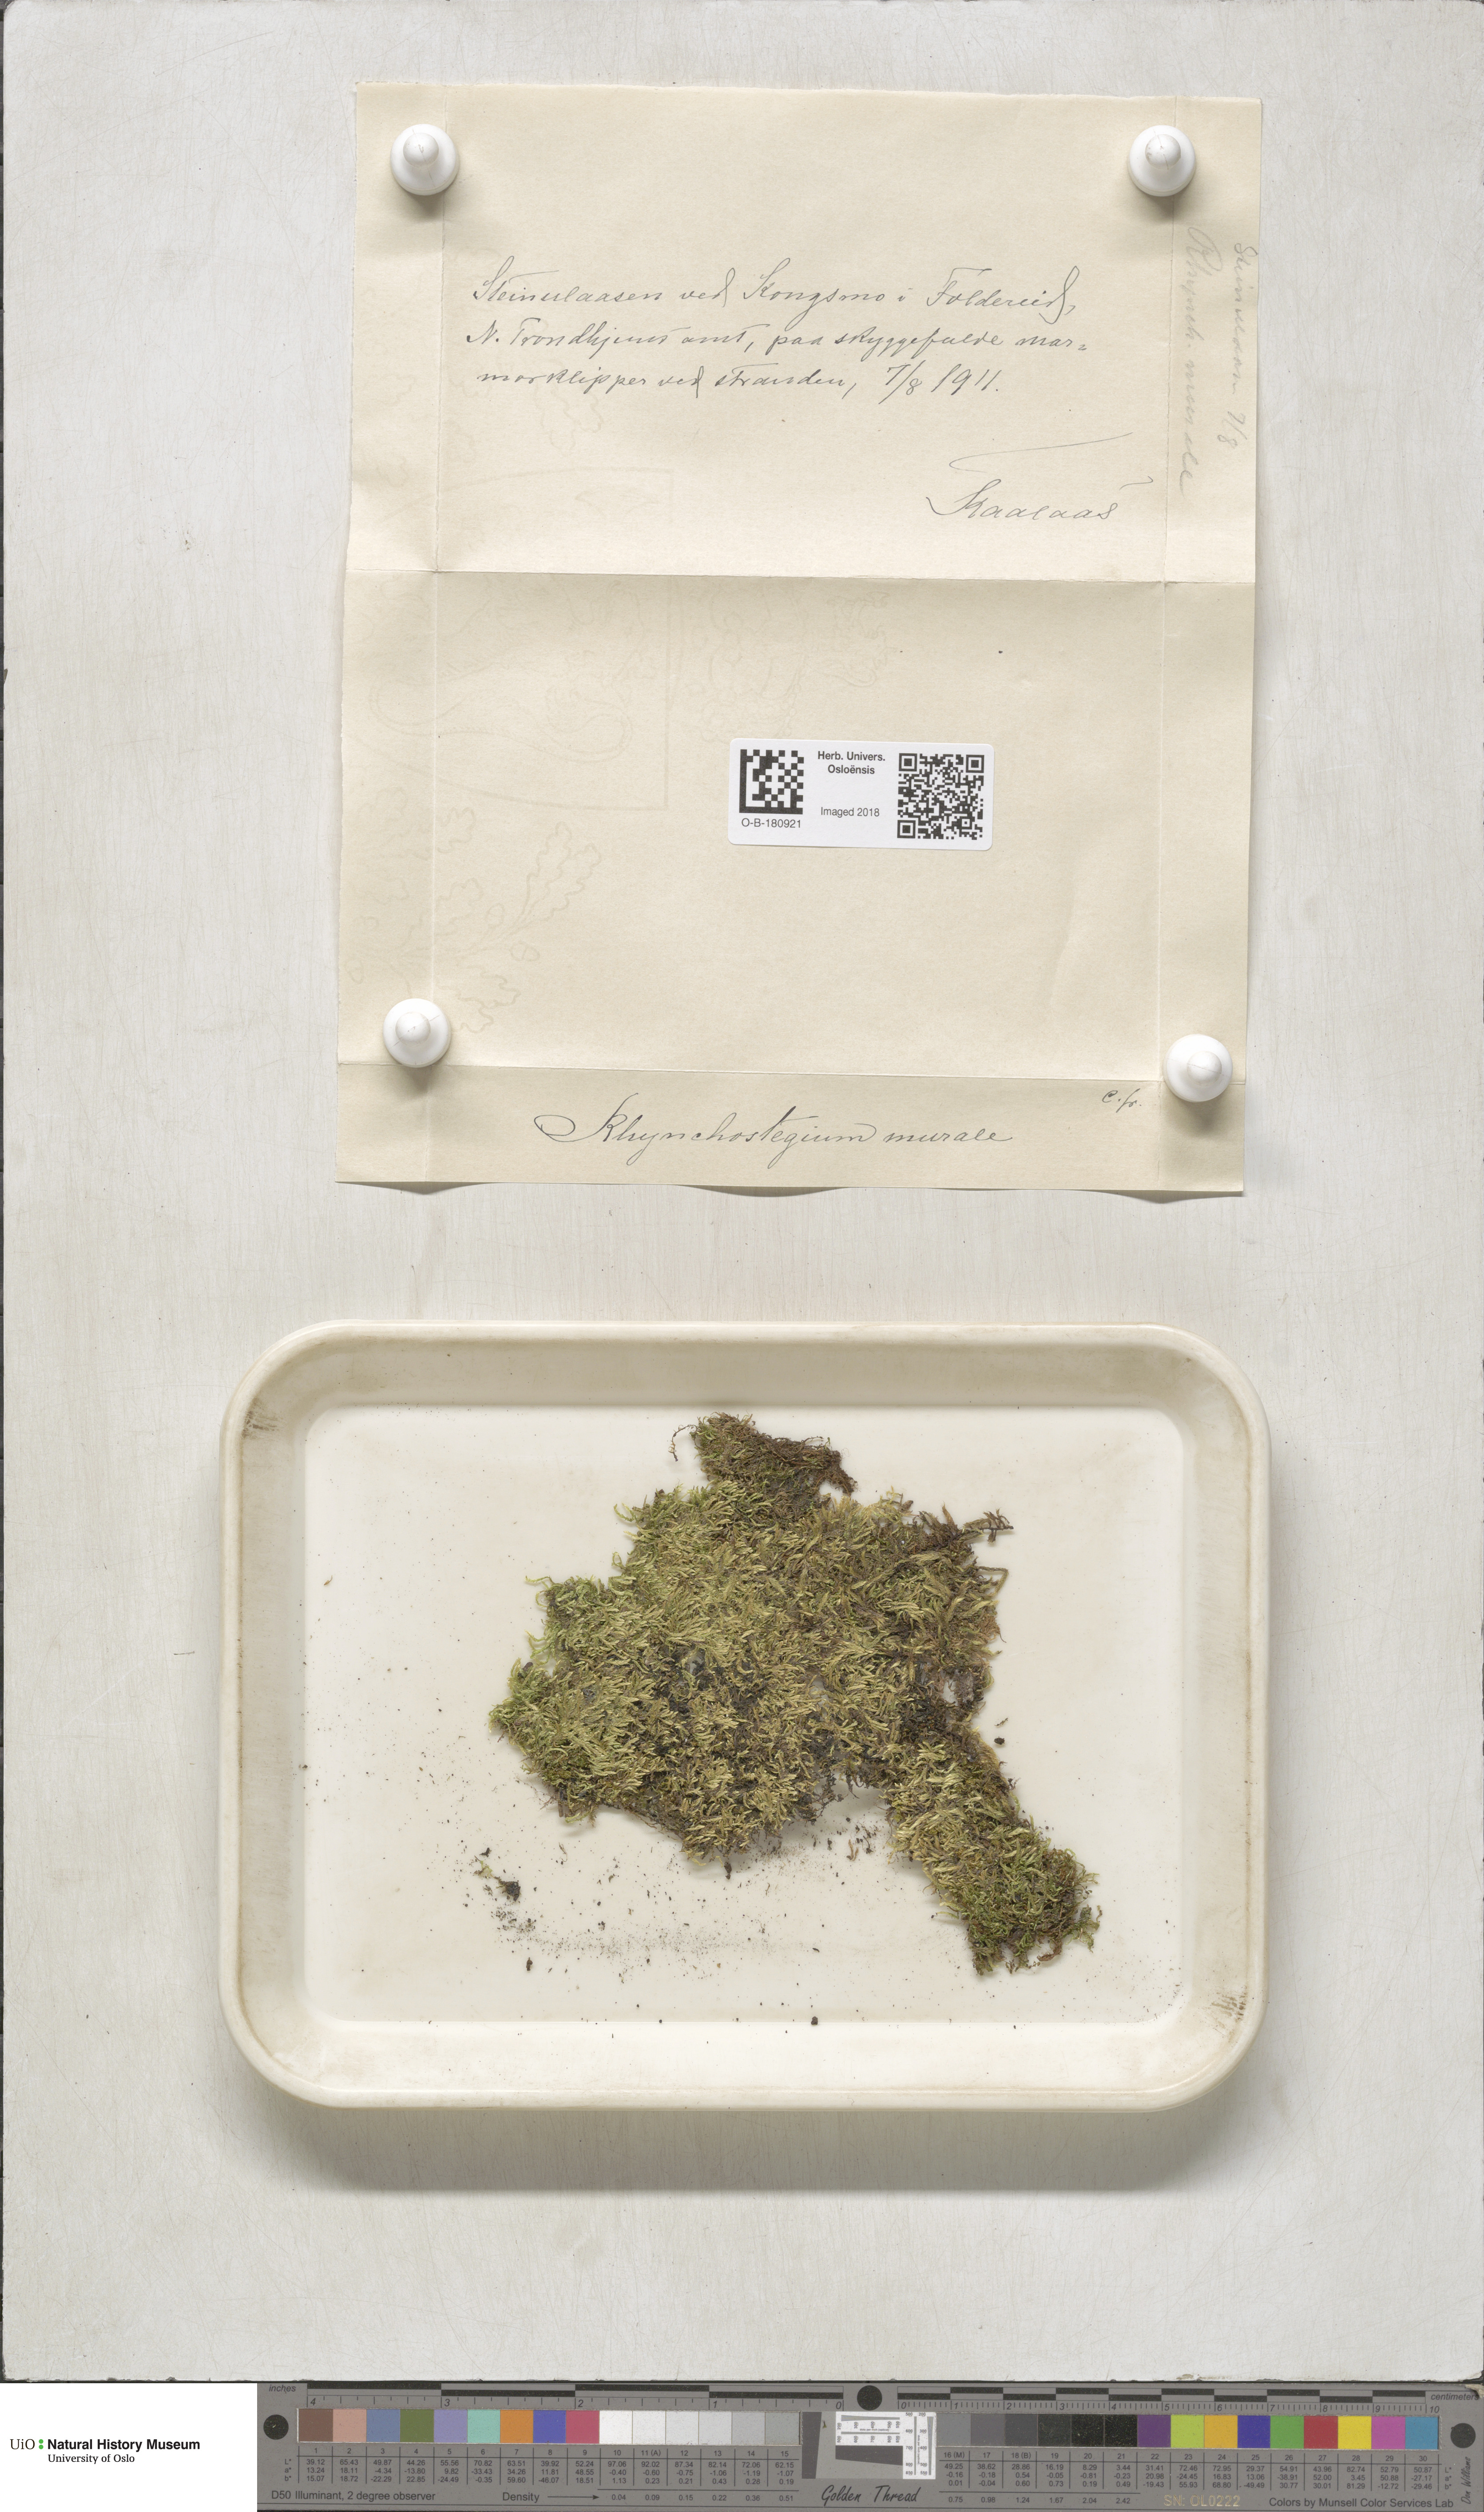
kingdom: Plantae
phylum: Bryophyta
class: Bryopsida
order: Hypnales
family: Brachytheciaceae
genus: Rhynchostegium
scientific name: Rhynchostegium murale
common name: Wall feather-moss
